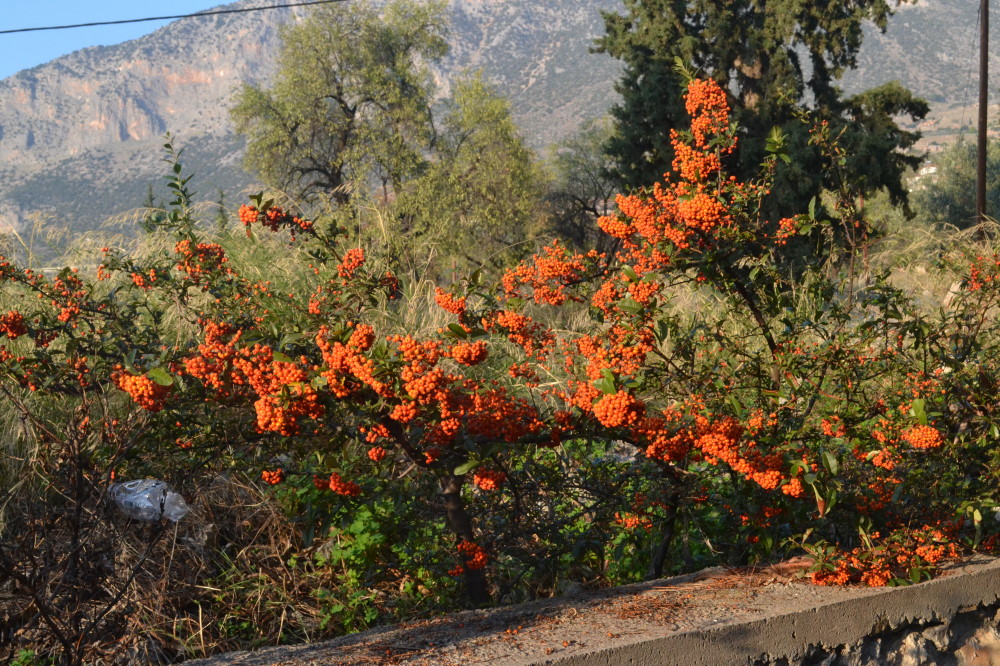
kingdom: Plantae
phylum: Tracheophyta
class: Magnoliopsida
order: Rosales
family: Rosaceae
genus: Pyracantha
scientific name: Pyracantha coccinea
